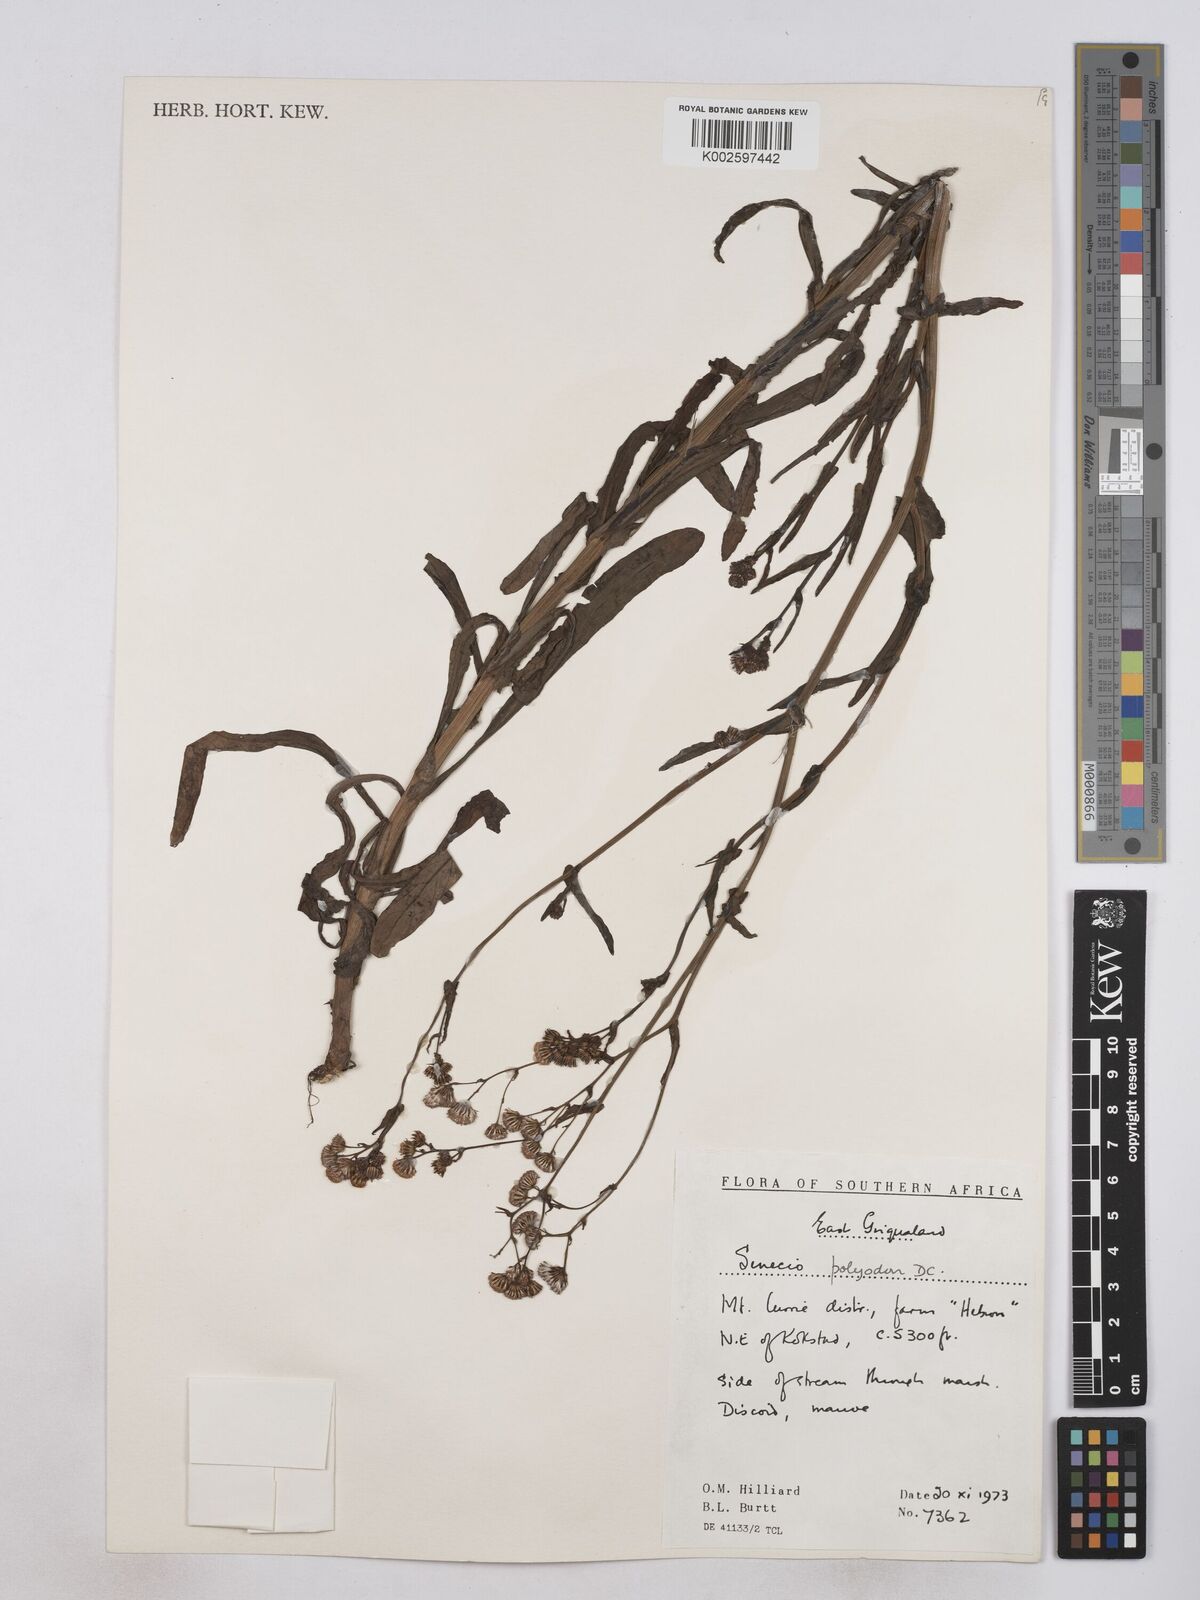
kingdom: Plantae
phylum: Tracheophyta
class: Magnoliopsida
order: Asterales
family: Asteraceae
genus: Senecio
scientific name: Senecio polyodon
